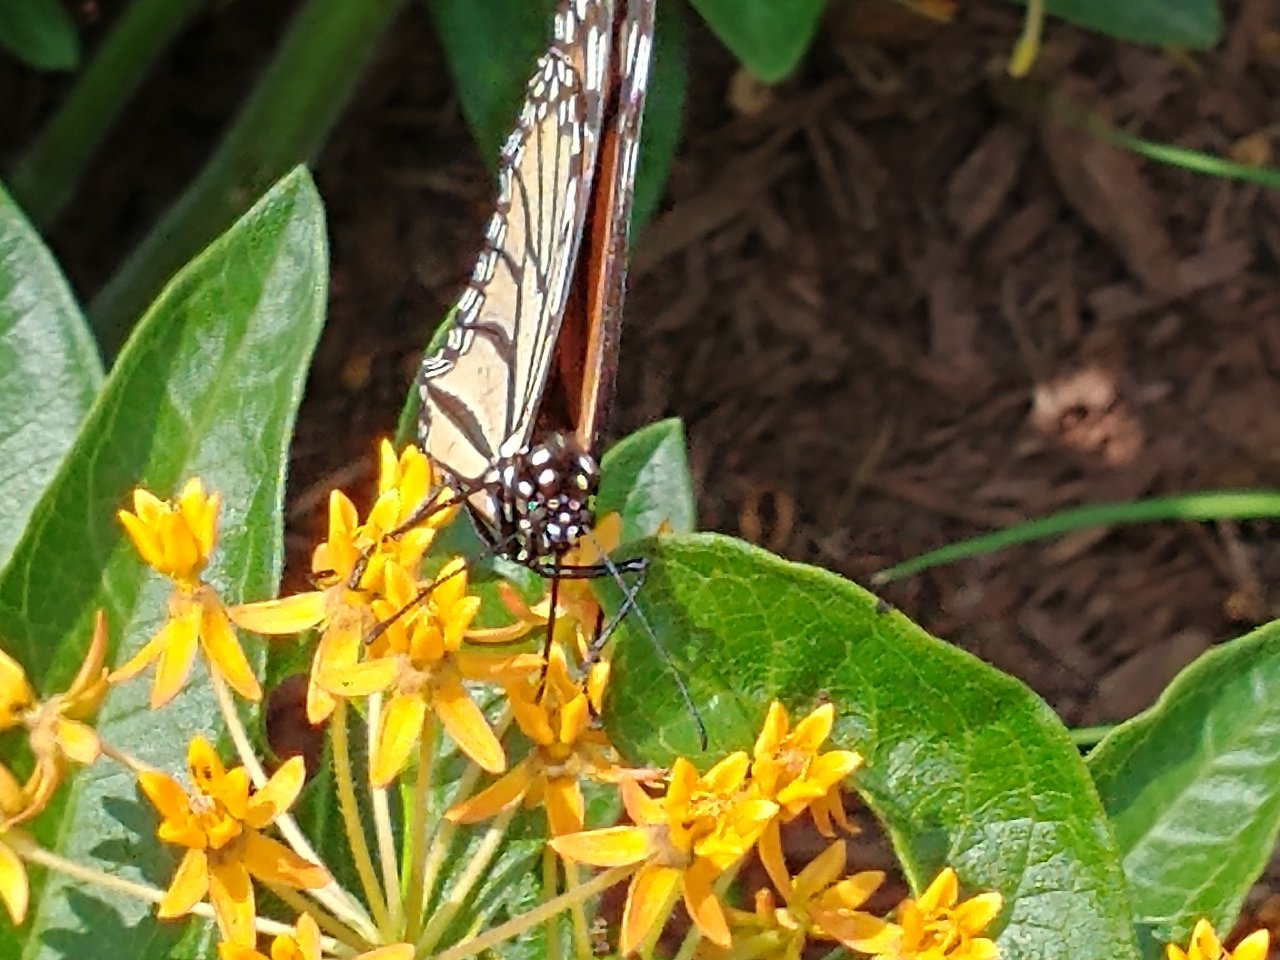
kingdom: Animalia
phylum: Arthropoda
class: Insecta
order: Lepidoptera
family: Nymphalidae
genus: Danaus
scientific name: Danaus plexippus
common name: Monarch
